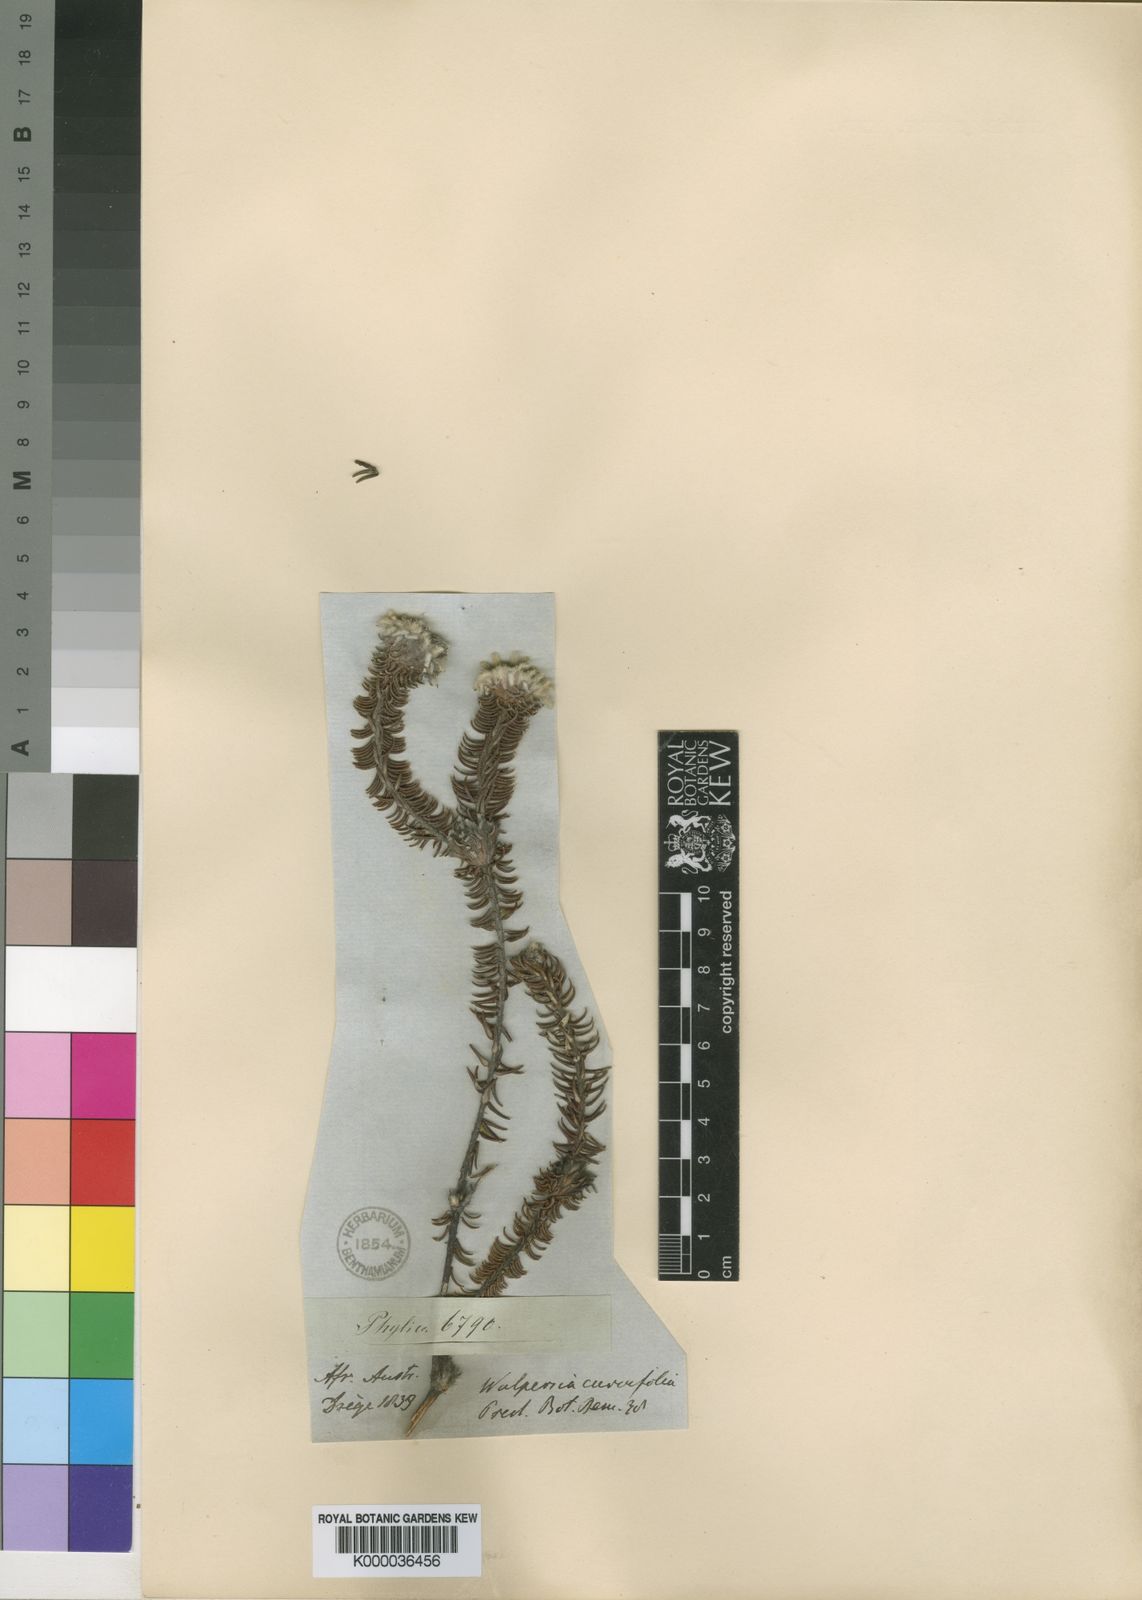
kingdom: Plantae
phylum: Tracheophyta
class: Magnoliopsida
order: Rosales
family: Rhamnaceae
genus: Phylica
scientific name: Phylica curvifolia
